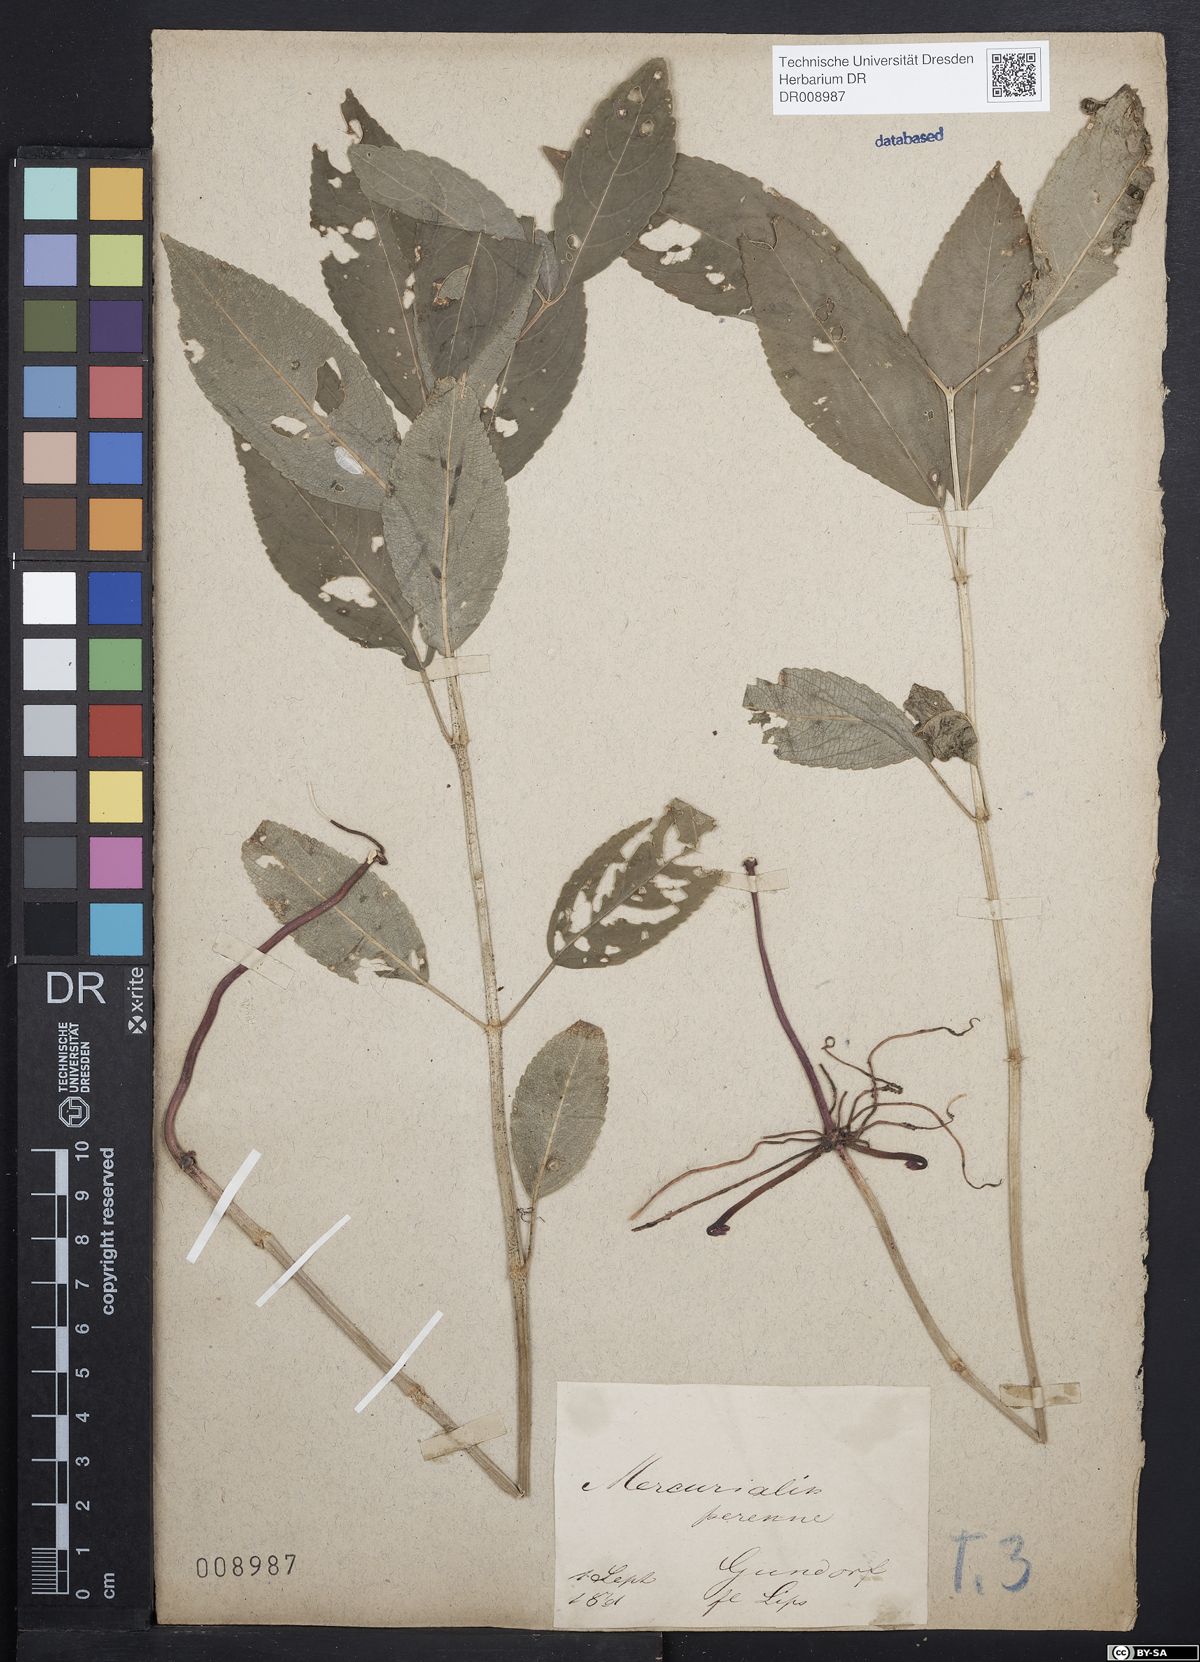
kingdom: Plantae
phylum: Tracheophyta
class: Magnoliopsida
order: Malpighiales
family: Euphorbiaceae
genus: Mercurialis
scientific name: Mercurialis perennis
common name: Dog mercury
